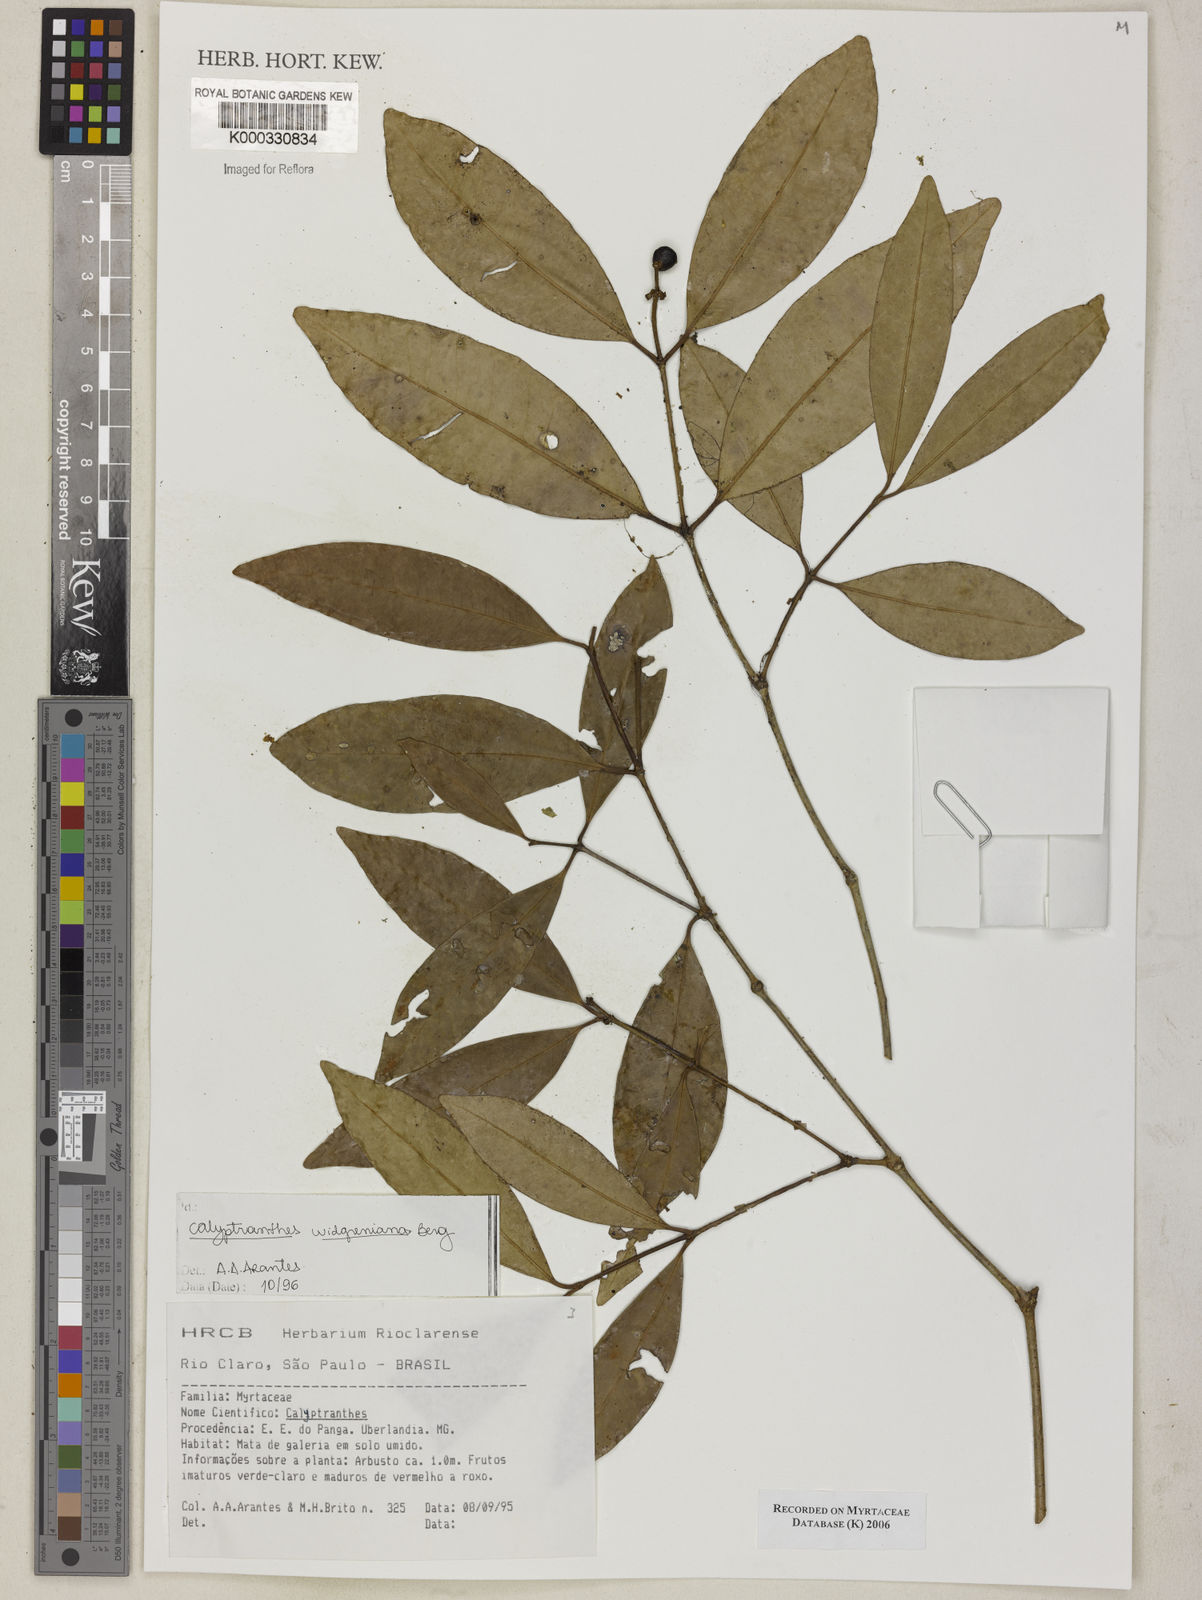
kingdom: Plantae
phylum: Tracheophyta
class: Magnoliopsida
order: Myrtales
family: Myrtaceae
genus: Calyptranthes
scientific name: Calyptranthes widgreniana
